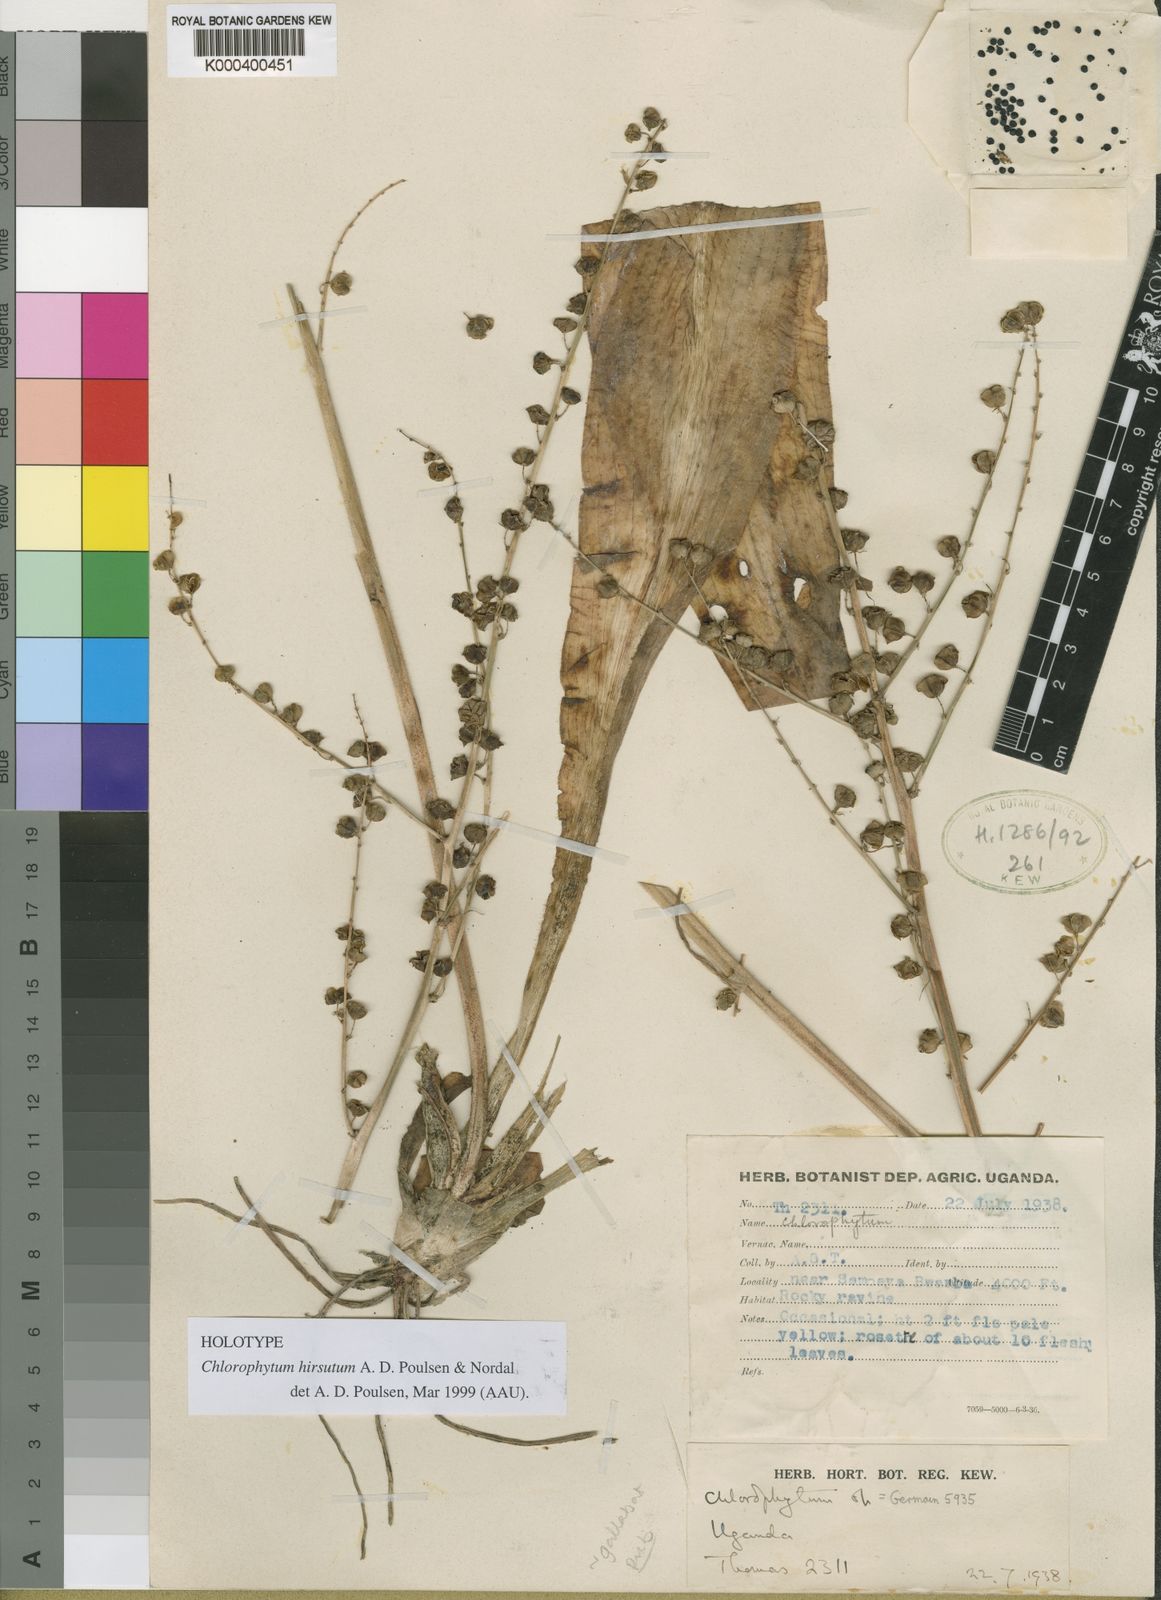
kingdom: Plantae
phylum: Tracheophyta
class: Liliopsida
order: Asparagales
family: Asparagaceae
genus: Chlorophytum
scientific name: Chlorophytum hirsutum
